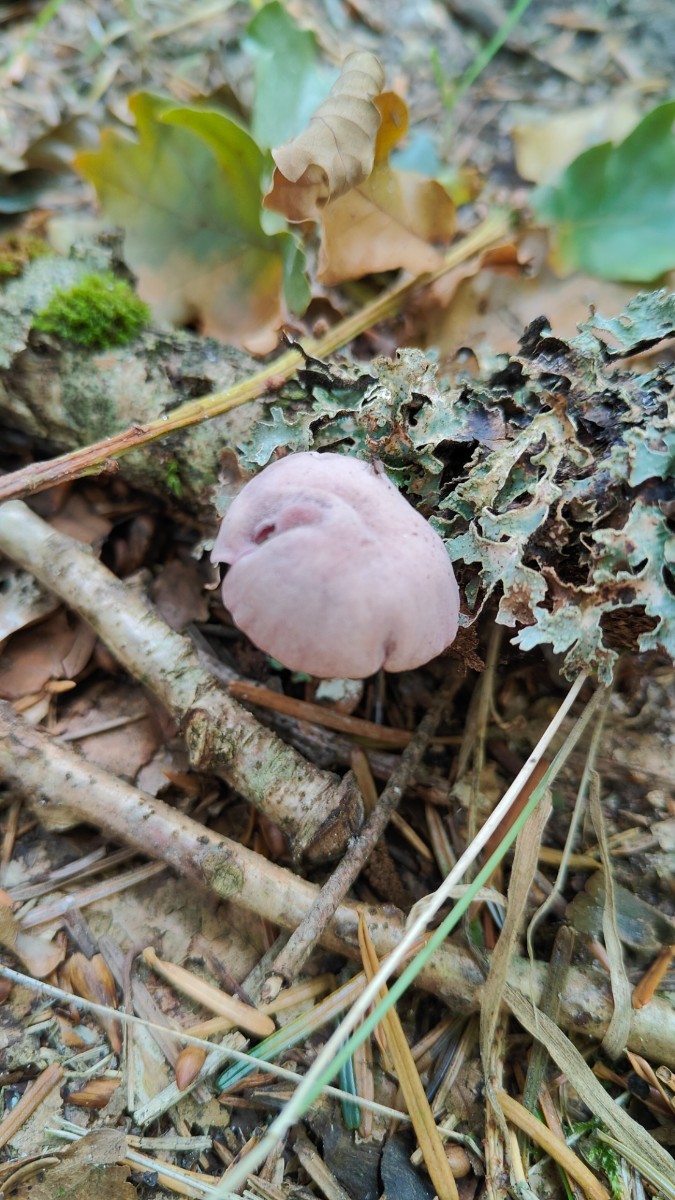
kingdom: Fungi
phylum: Basidiomycota
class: Agaricomycetes
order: Agaricales
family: Hydnangiaceae
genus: Laccaria
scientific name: Laccaria amethystina
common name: violet ametysthat
